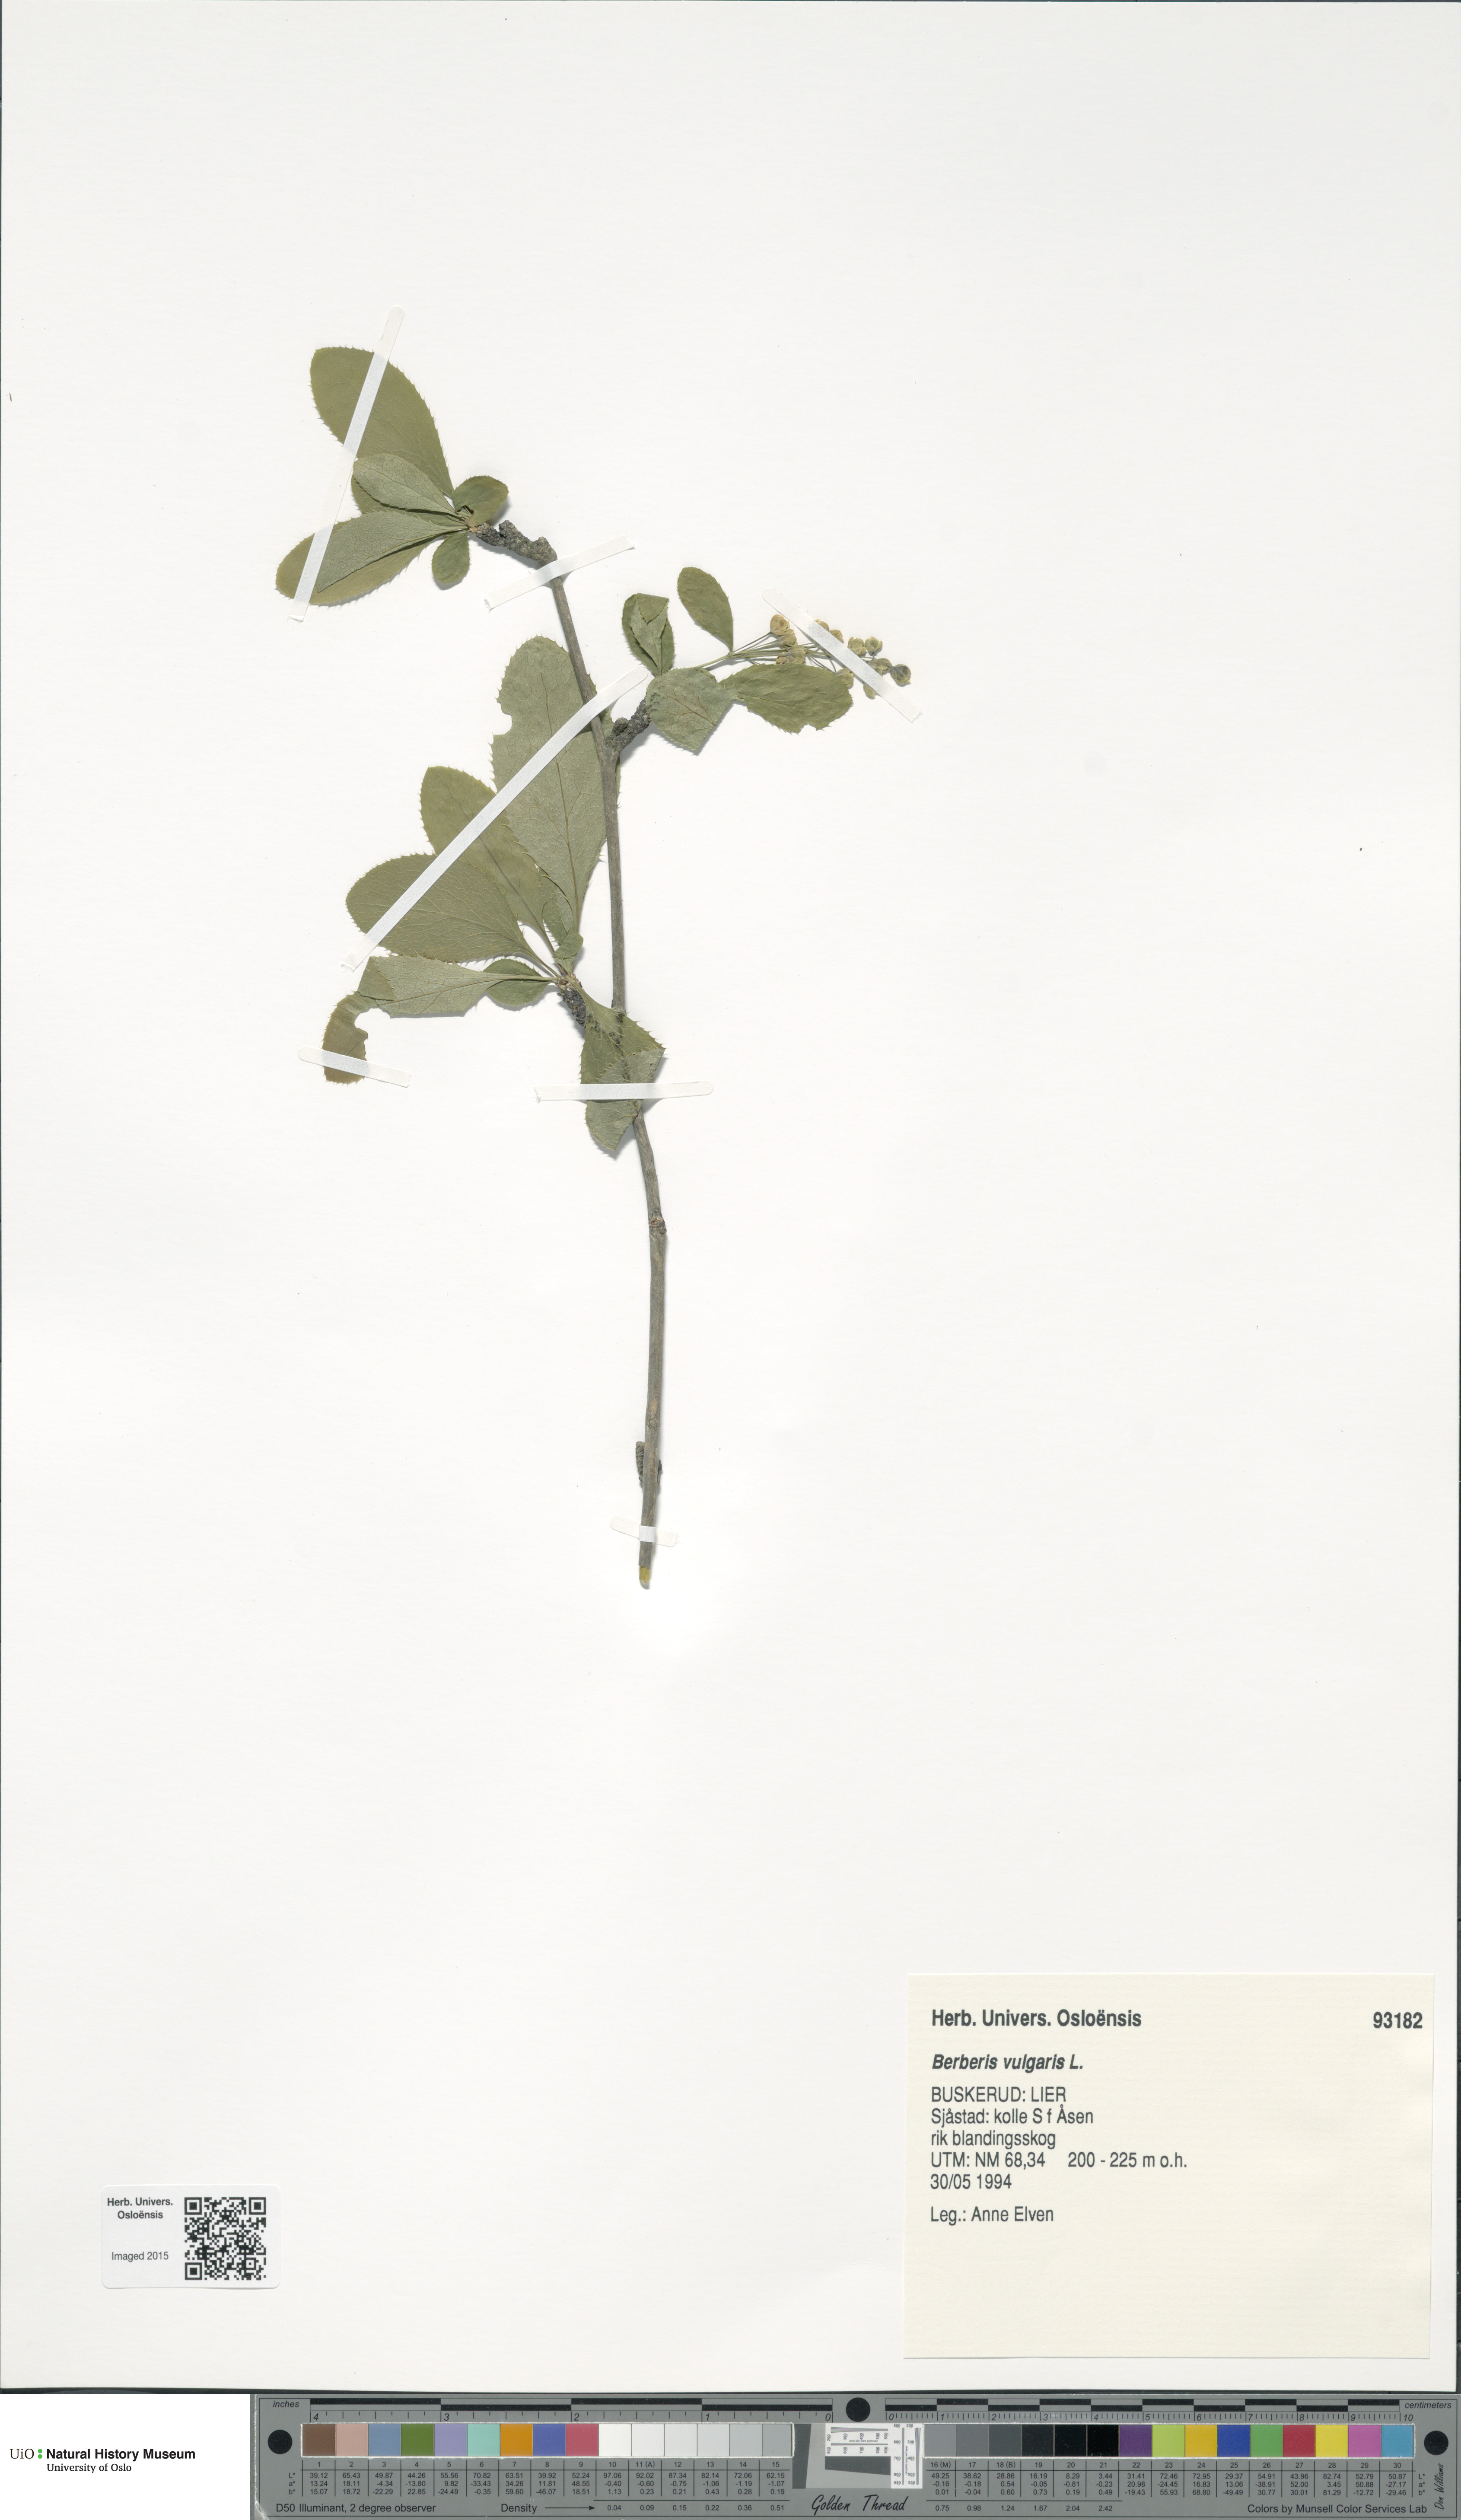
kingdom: Plantae
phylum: Tracheophyta
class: Magnoliopsida
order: Ranunculales
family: Berberidaceae
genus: Berberis
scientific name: Berberis vulgaris
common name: Barberry
